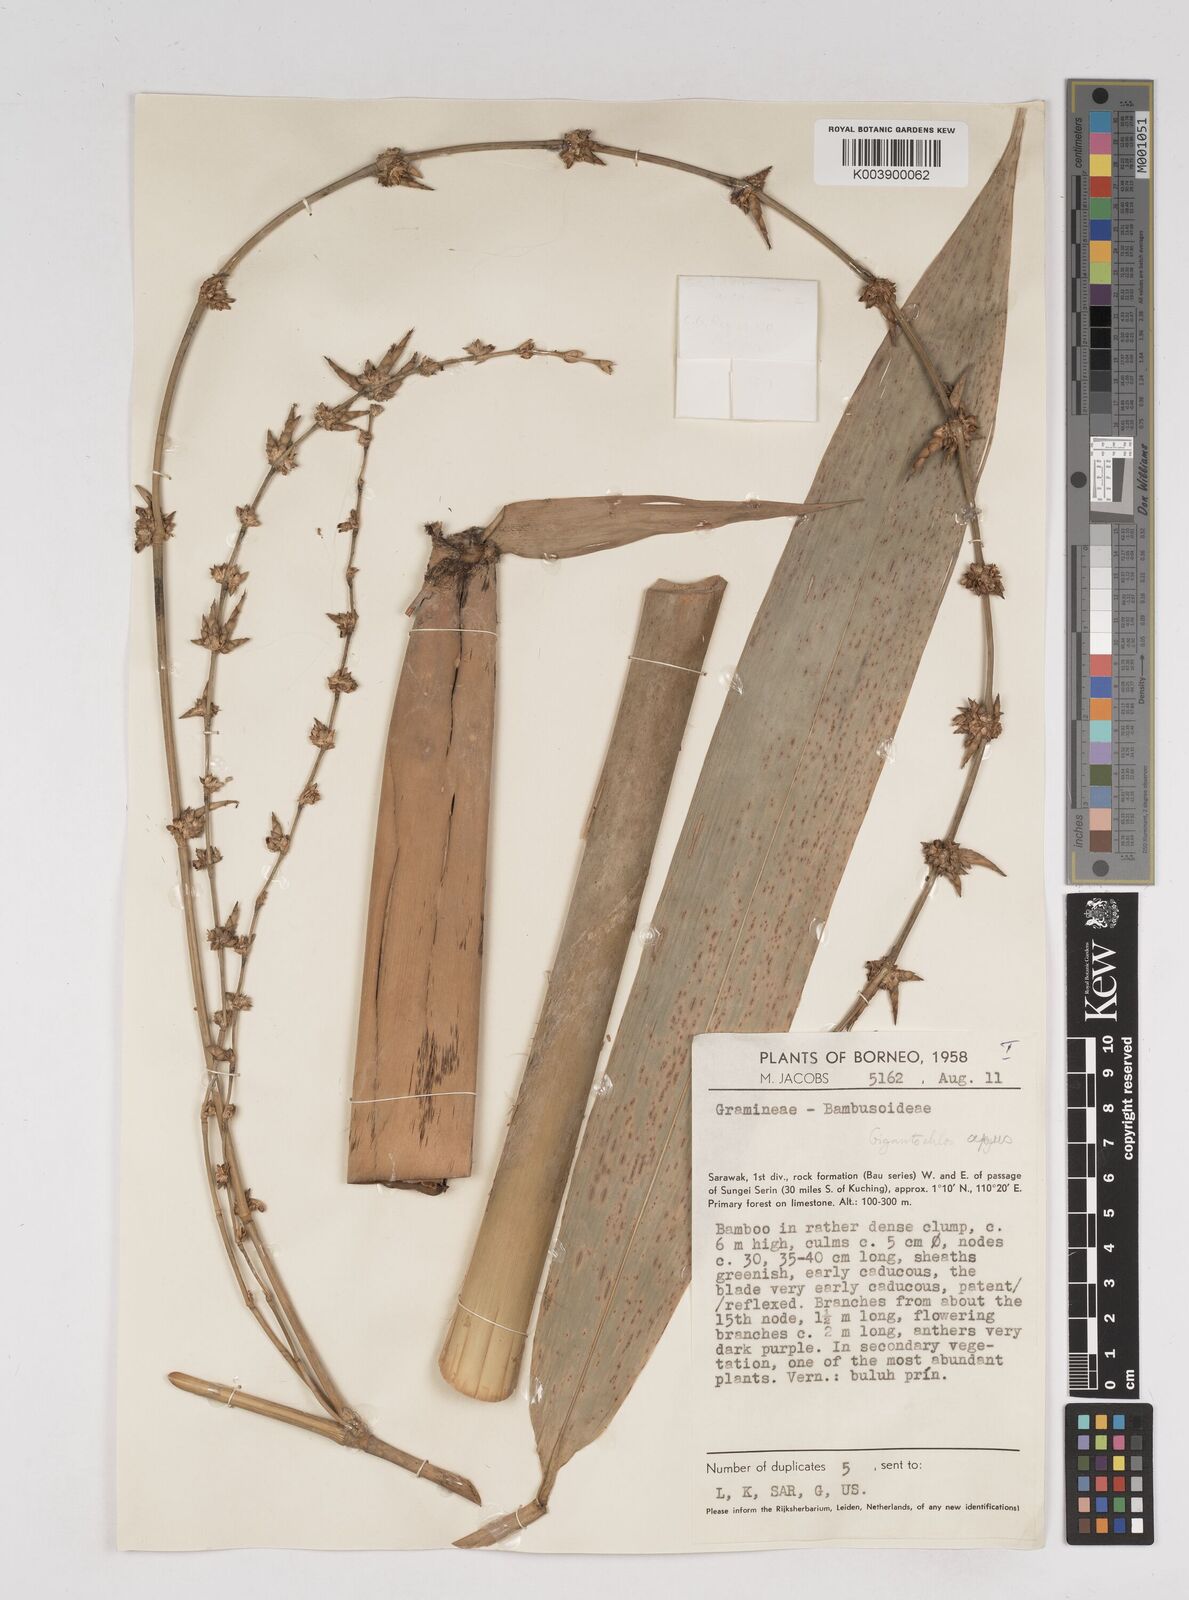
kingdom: Plantae
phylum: Tracheophyta
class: Liliopsida
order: Poales
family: Poaceae
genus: Gigantochloa
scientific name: Gigantochloa apus
